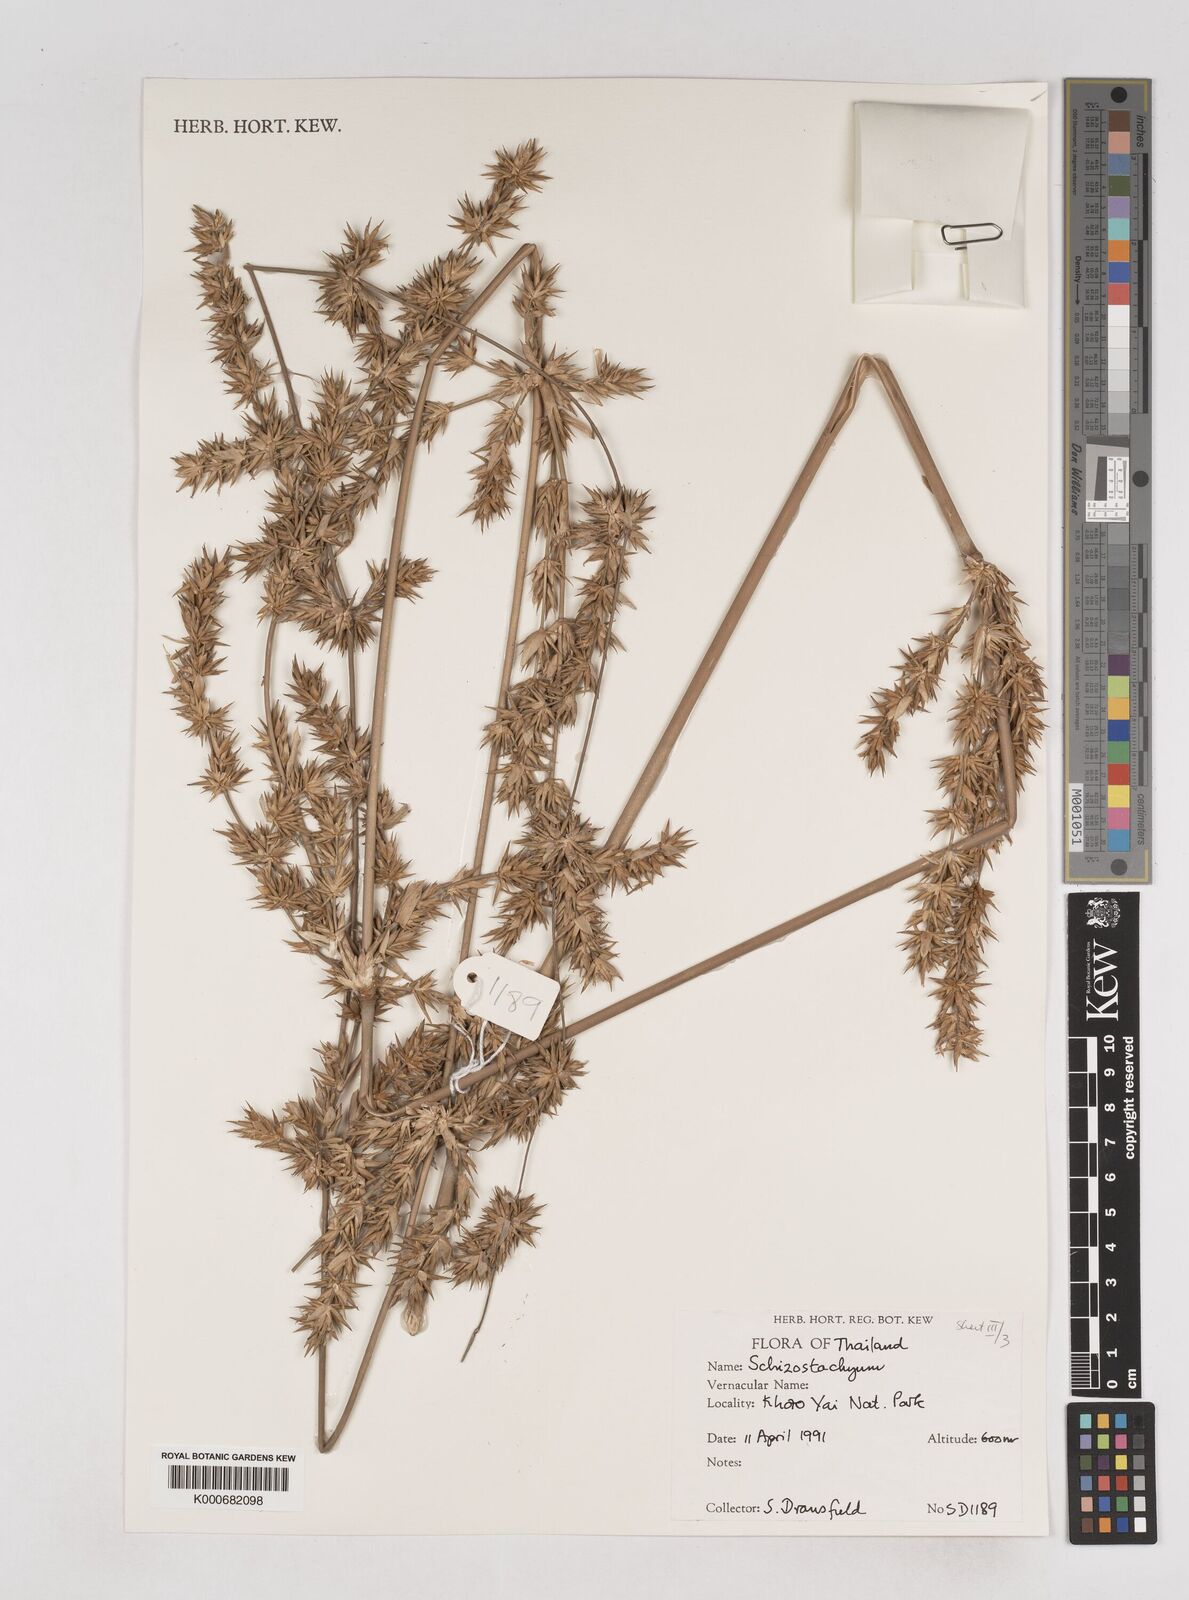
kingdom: Plantae
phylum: Tracheophyta
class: Liliopsida
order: Poales
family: Poaceae
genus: Schizostachyum
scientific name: Schizostachyum
